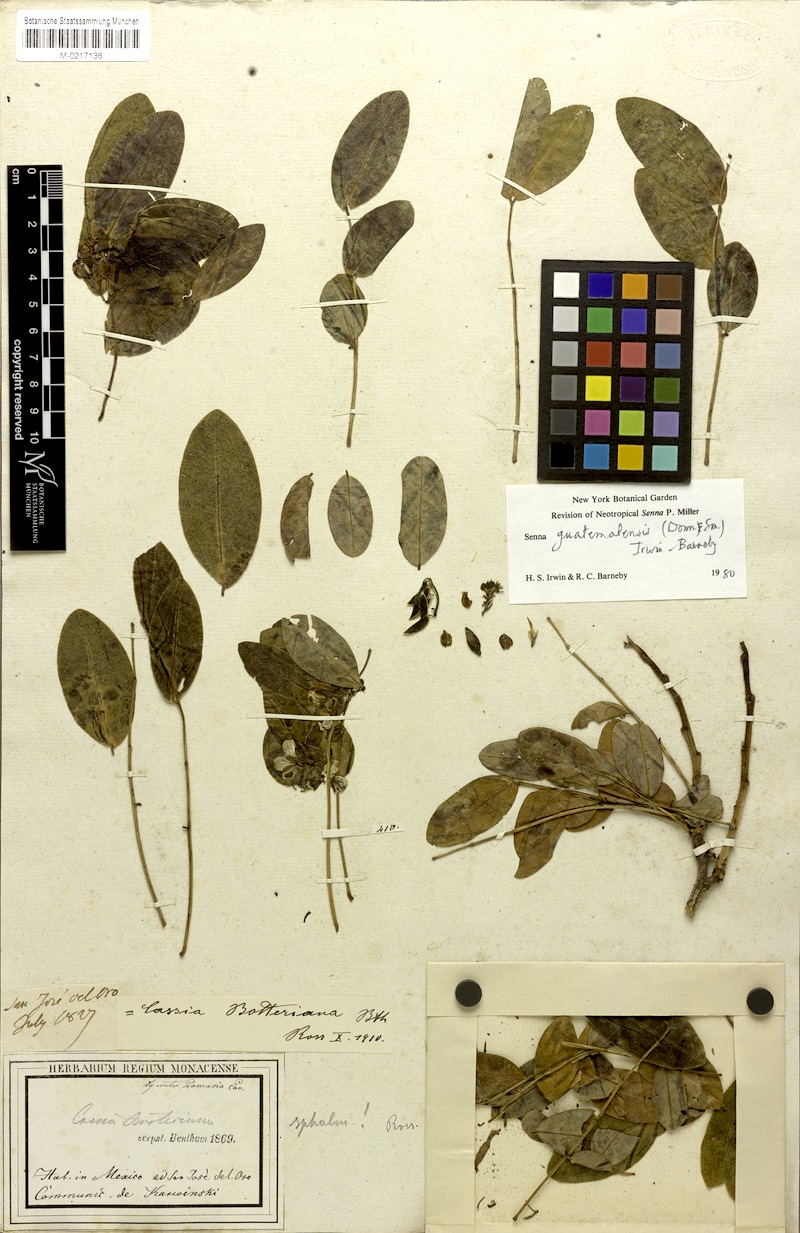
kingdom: Plantae
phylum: Tracheophyta
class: Magnoliopsida
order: Fabales
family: Fabaceae
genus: Senna
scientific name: Senna pendula
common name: Easter cassia
